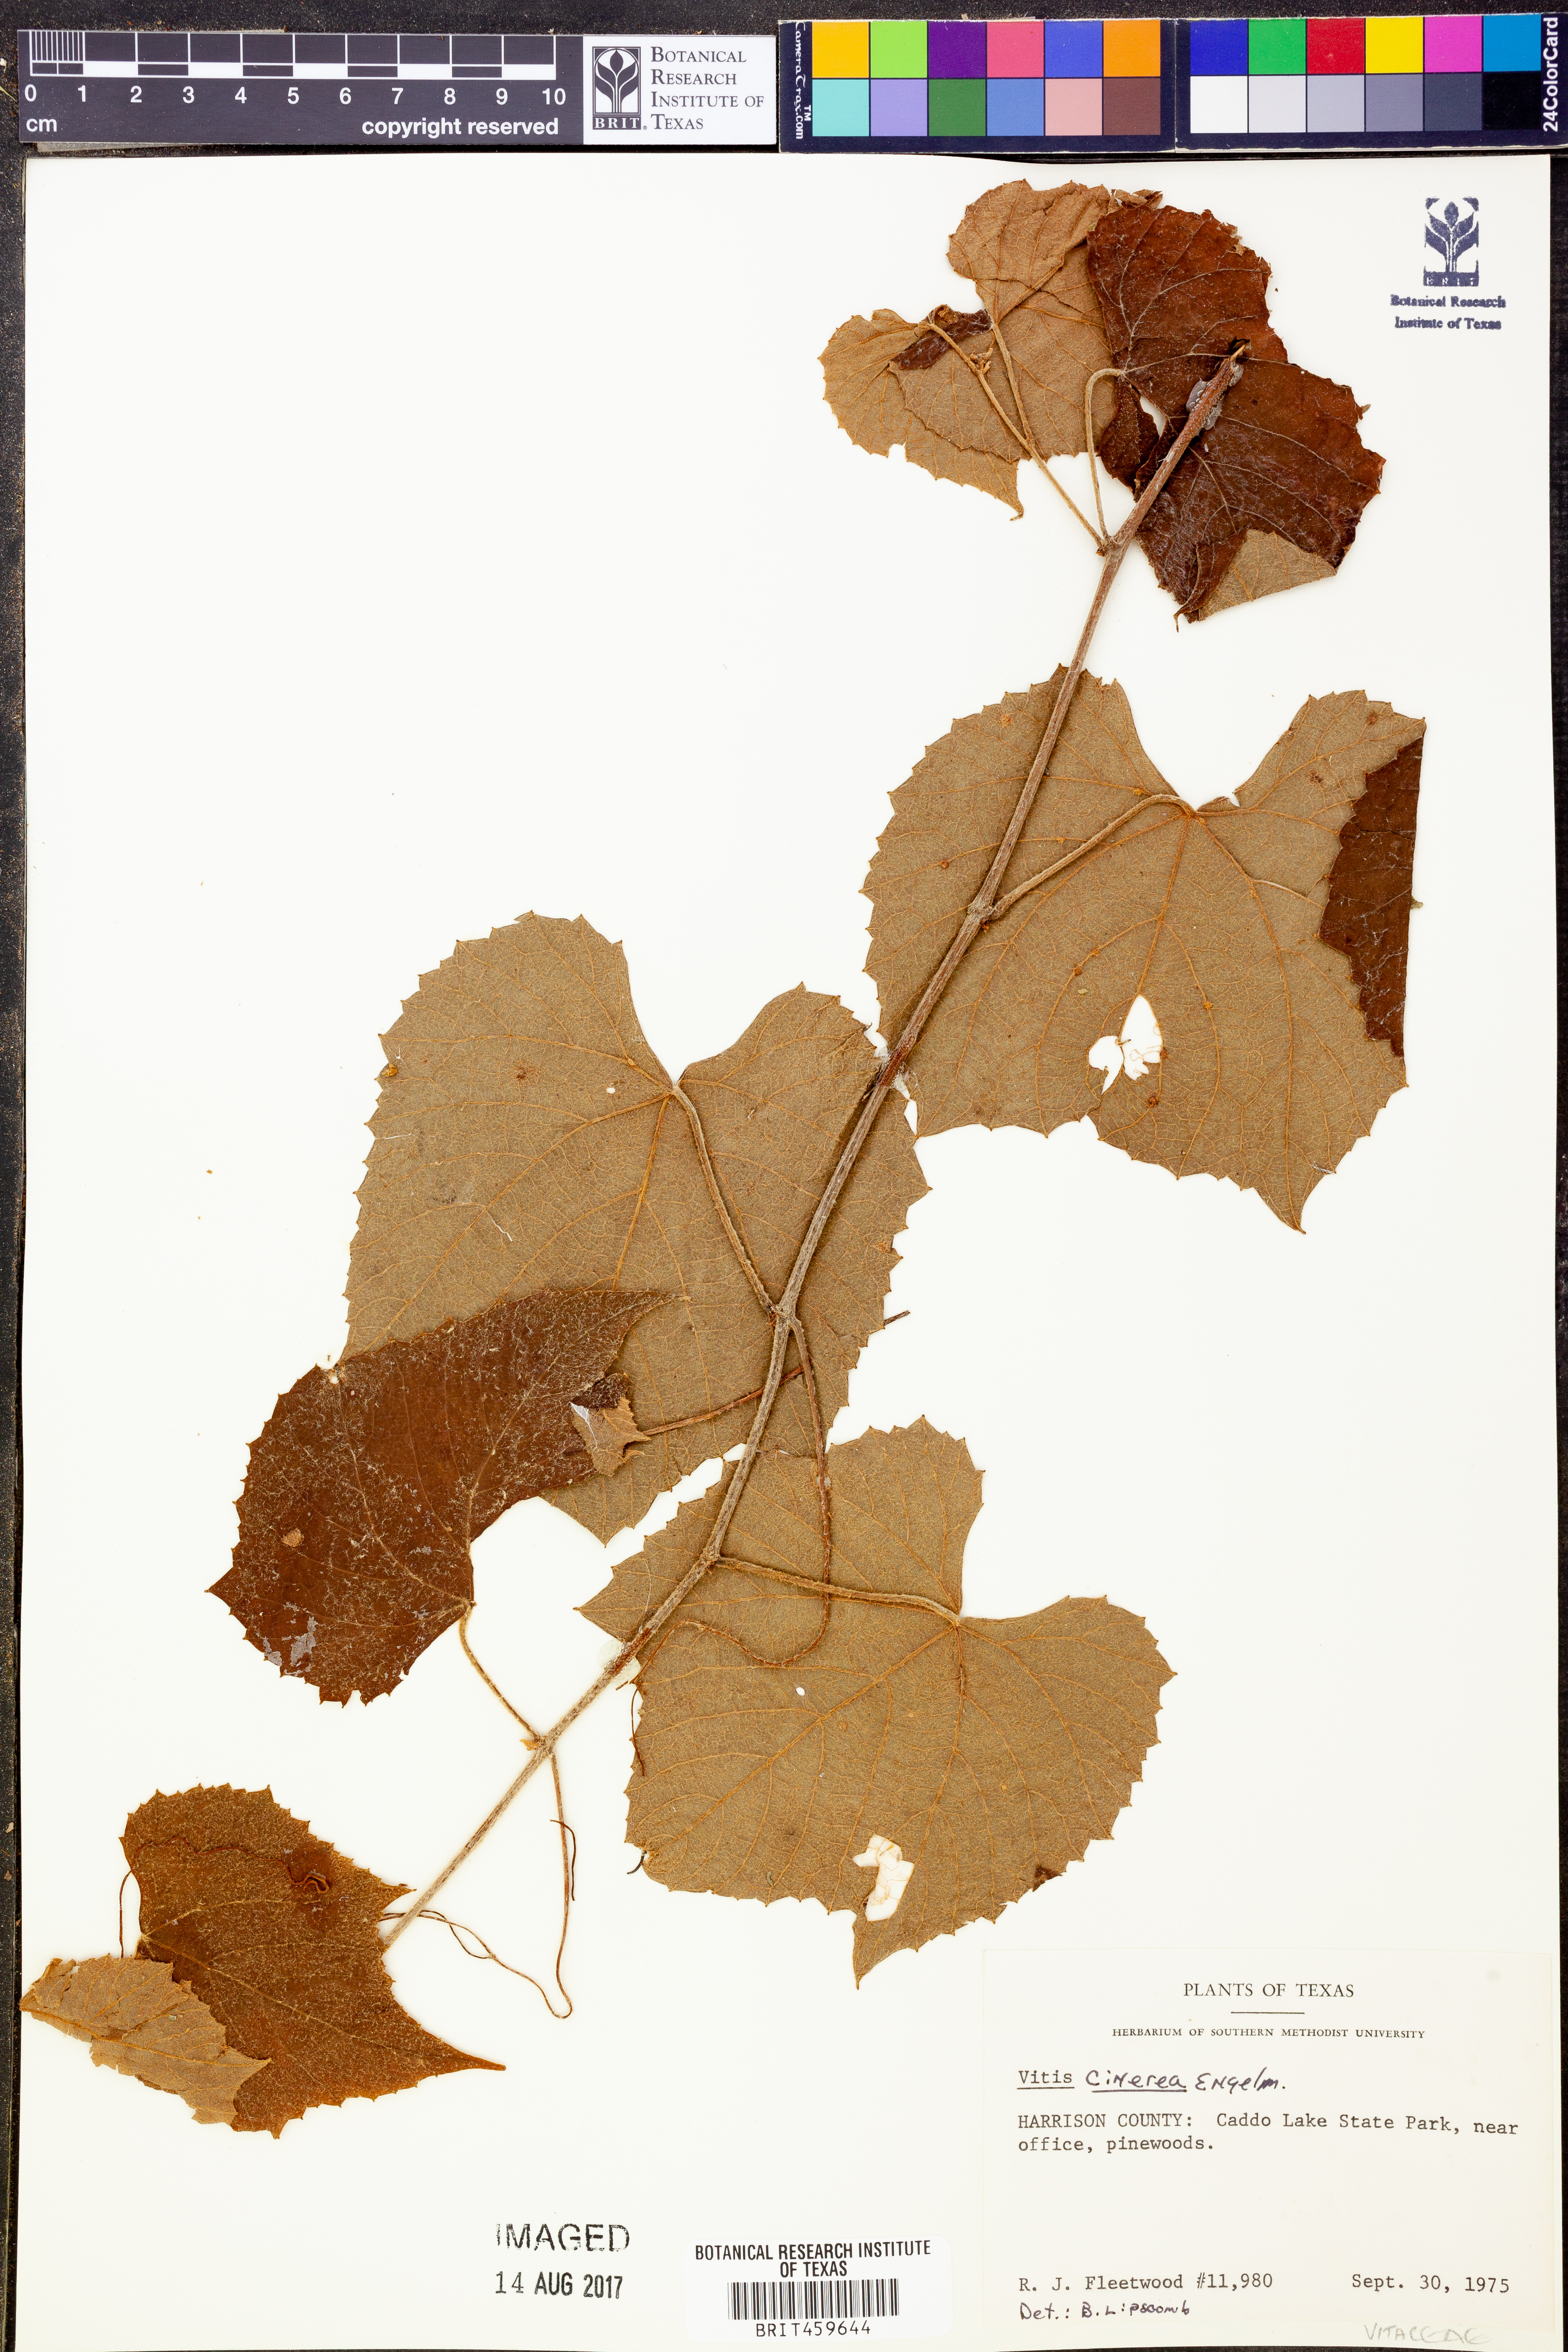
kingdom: Plantae
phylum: Tracheophyta
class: Magnoliopsida
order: Vitales
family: Vitaceae
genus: Vitis
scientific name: Vitis cinerea
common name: Ashy grape
